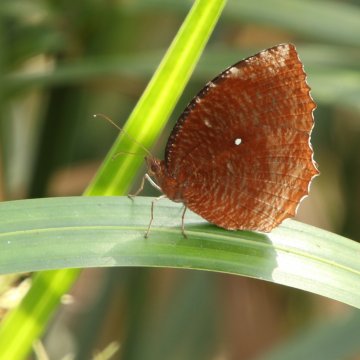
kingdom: Animalia
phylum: Arthropoda
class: Insecta
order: Lepidoptera
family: Nymphalidae
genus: Elymnias
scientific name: Elymnias hypermnestra
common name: Common Palmfly
